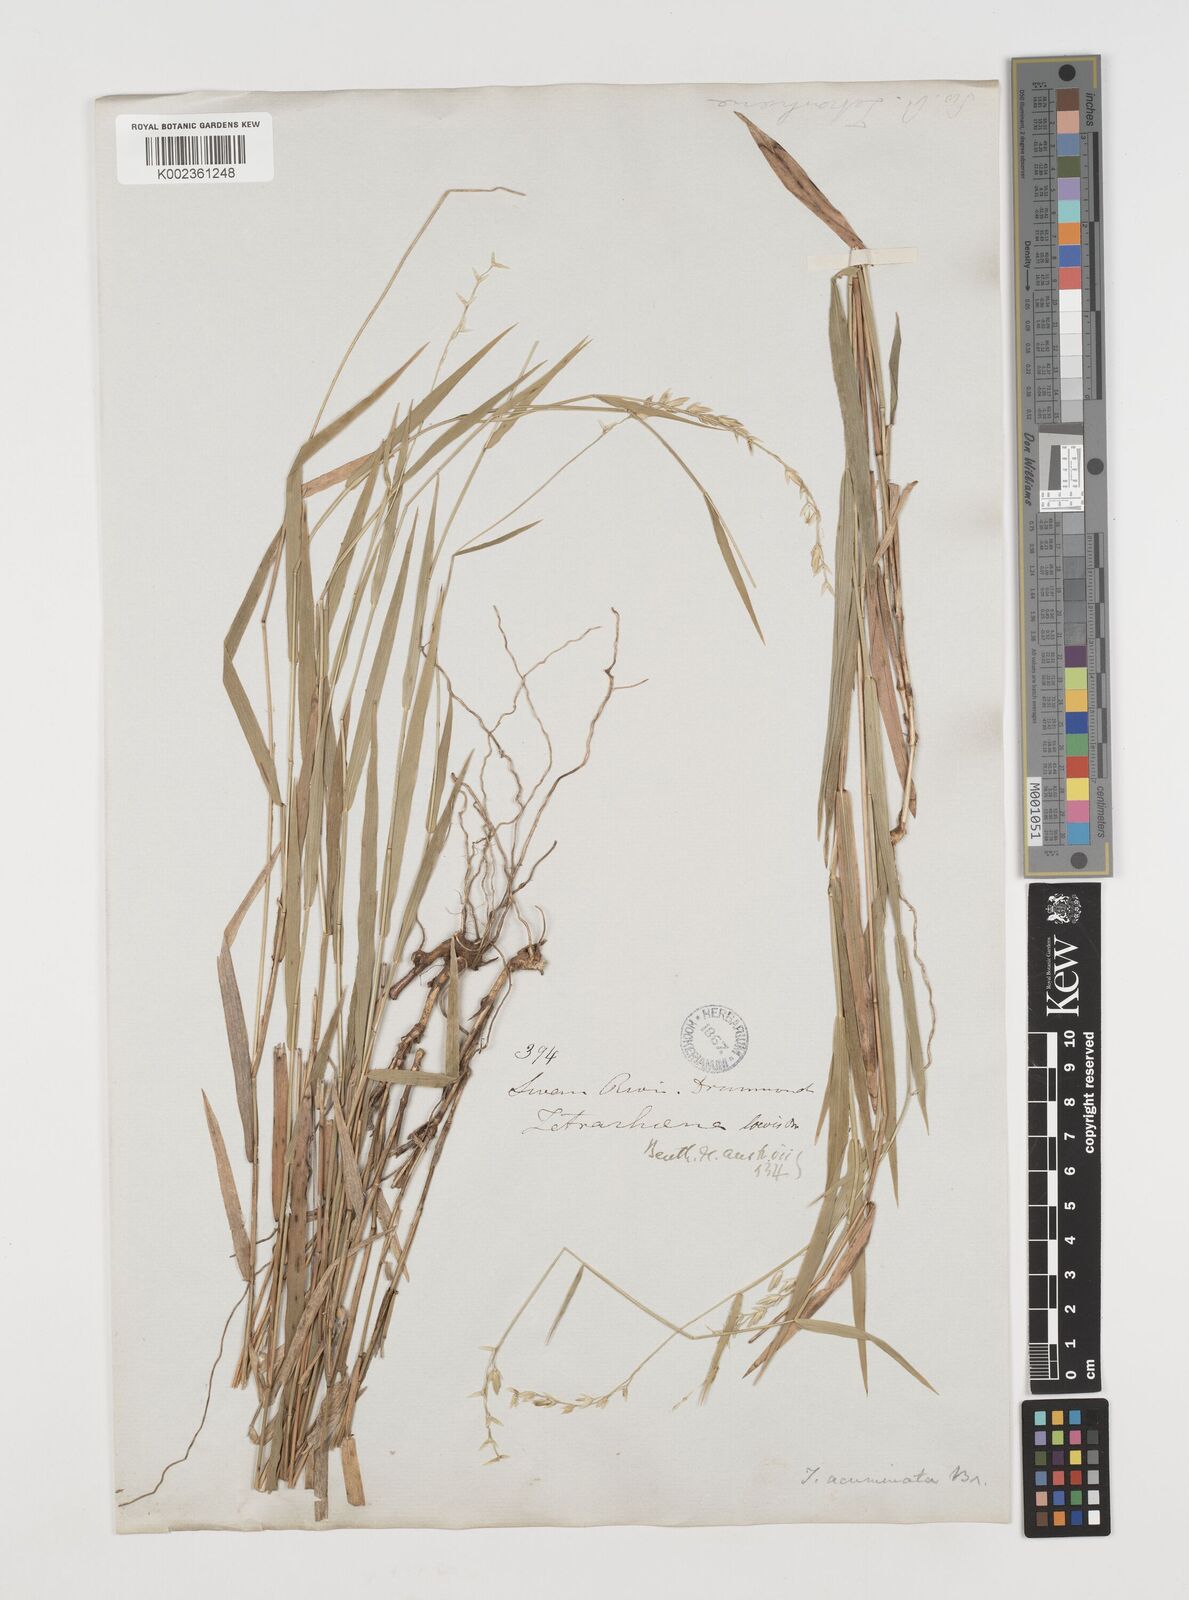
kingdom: Plantae
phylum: Tracheophyta
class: Liliopsida
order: Poales
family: Poaceae
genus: Ehrharta
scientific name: Ehrharta
